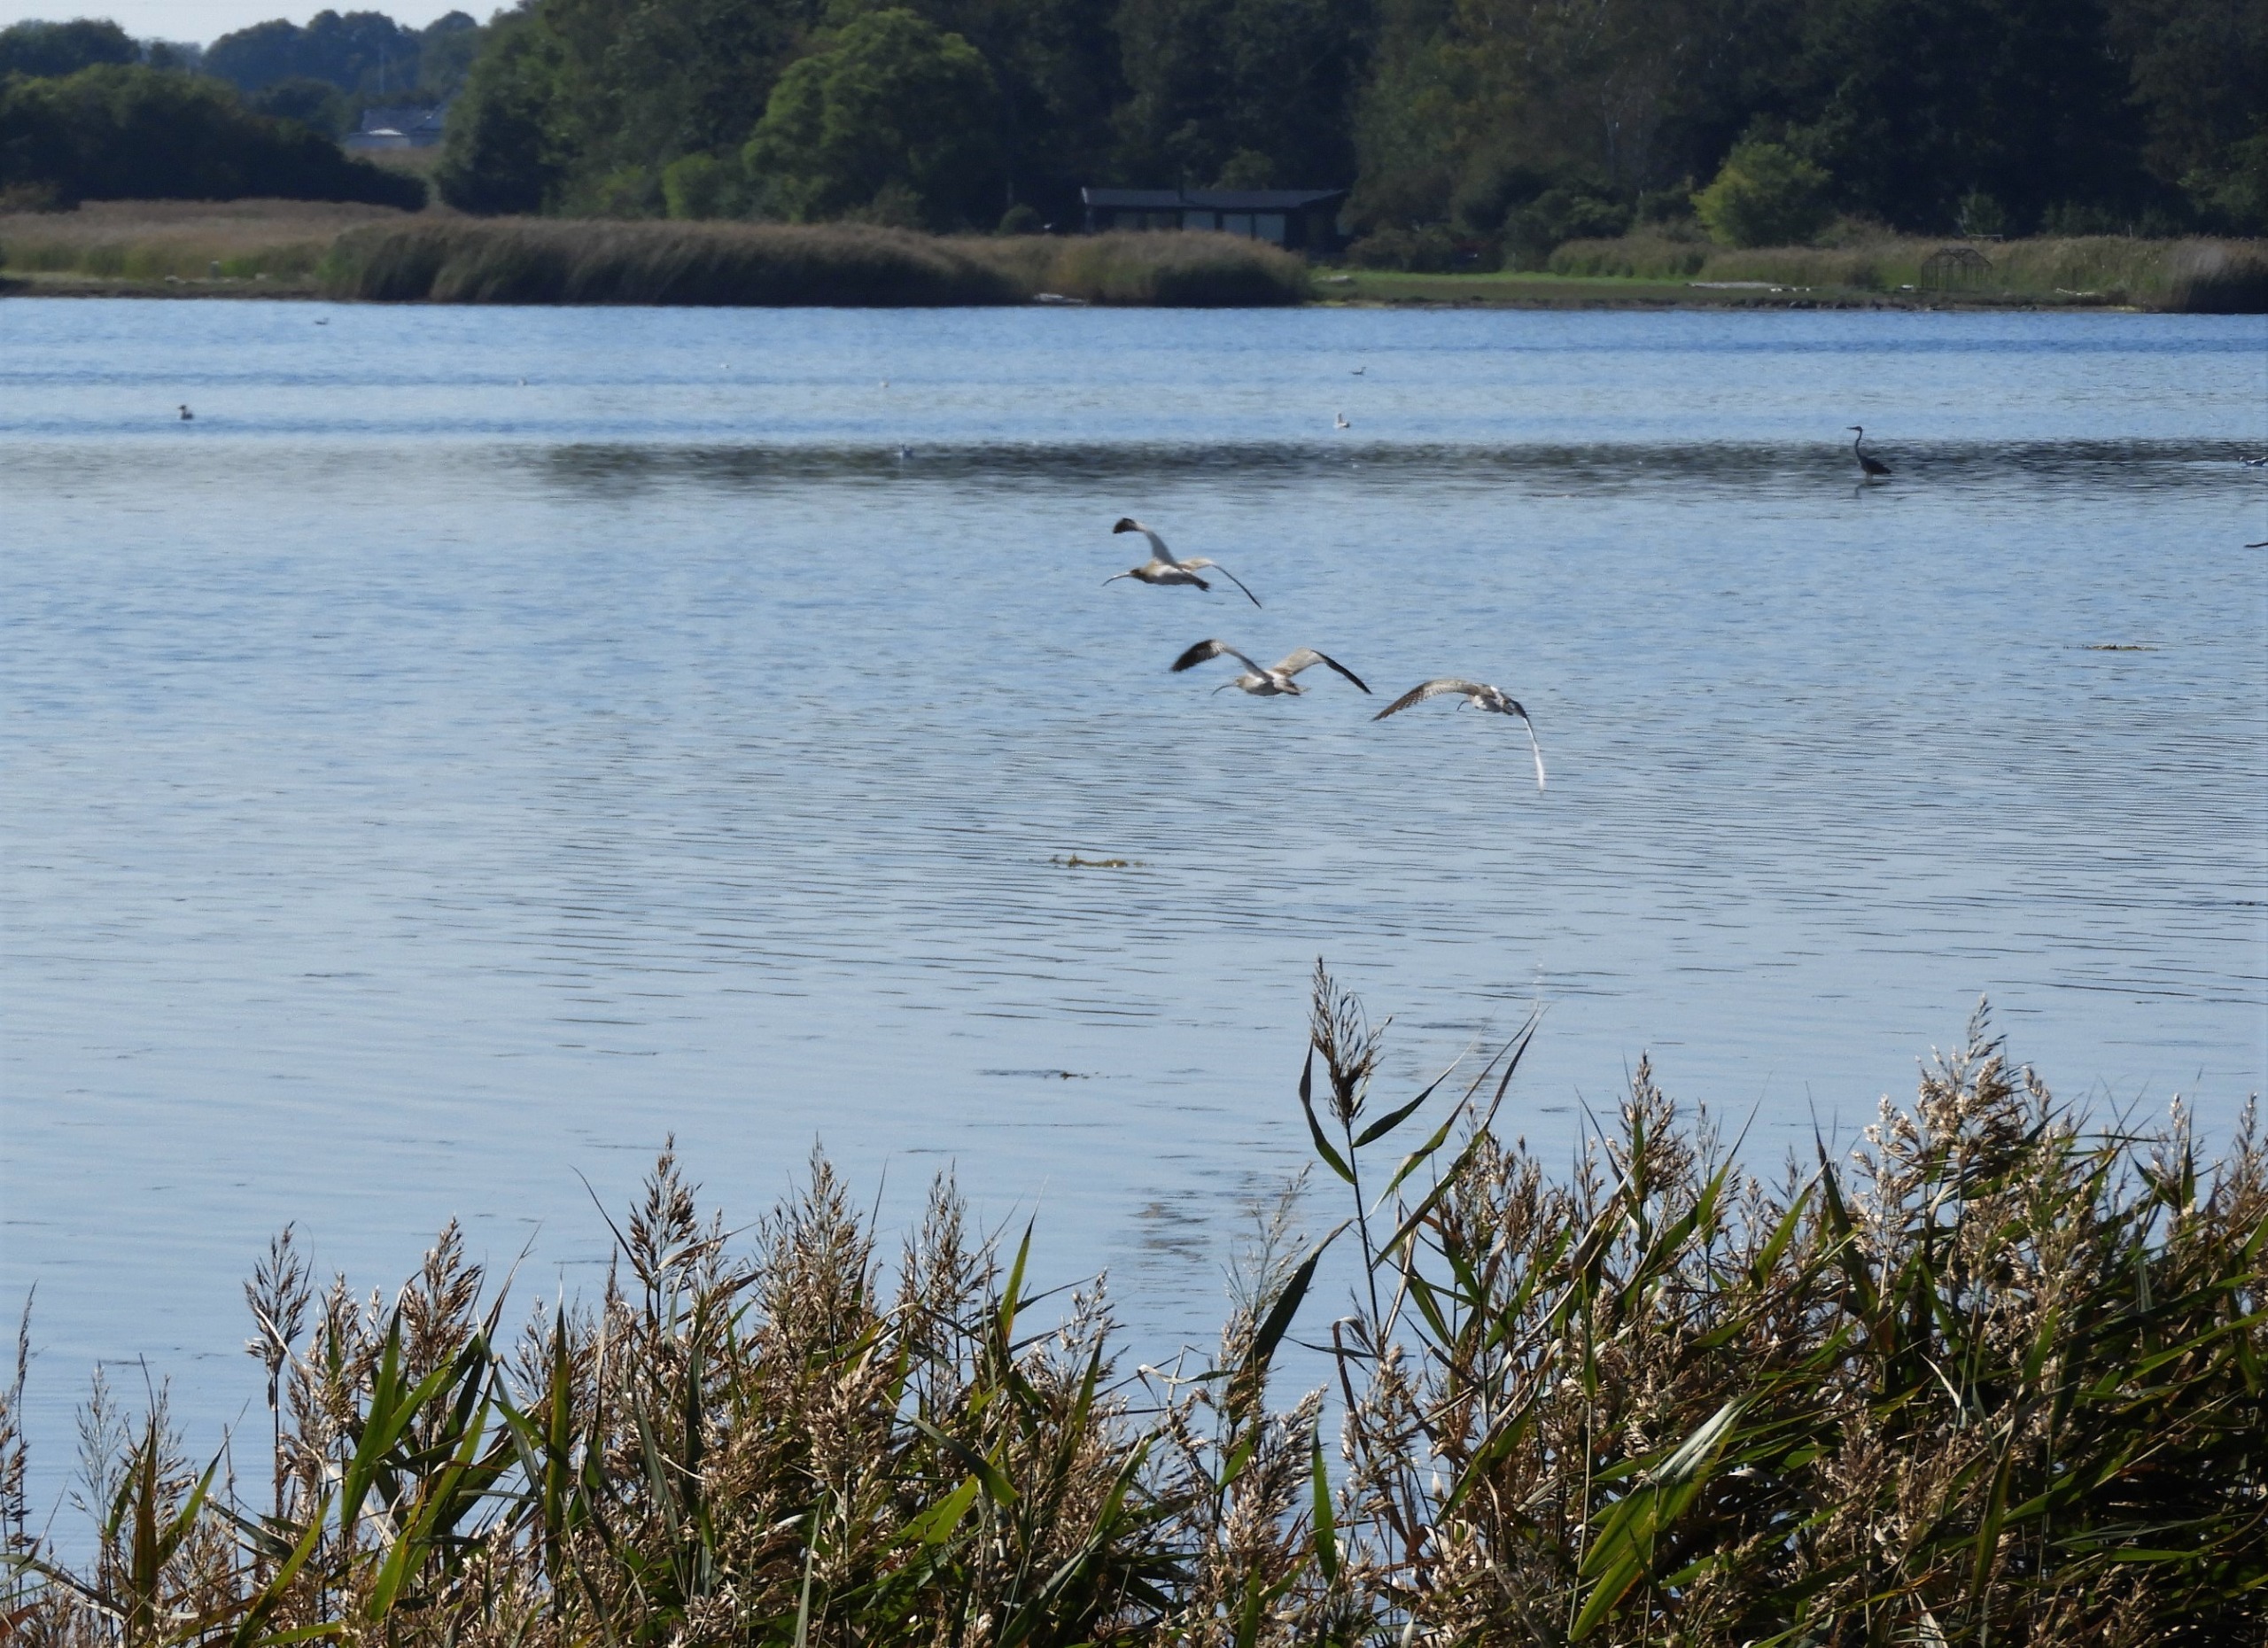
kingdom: Animalia
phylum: Chordata
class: Aves
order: Charadriiformes
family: Scolopacidae
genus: Numenius
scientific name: Numenius arquata
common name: Storspove
